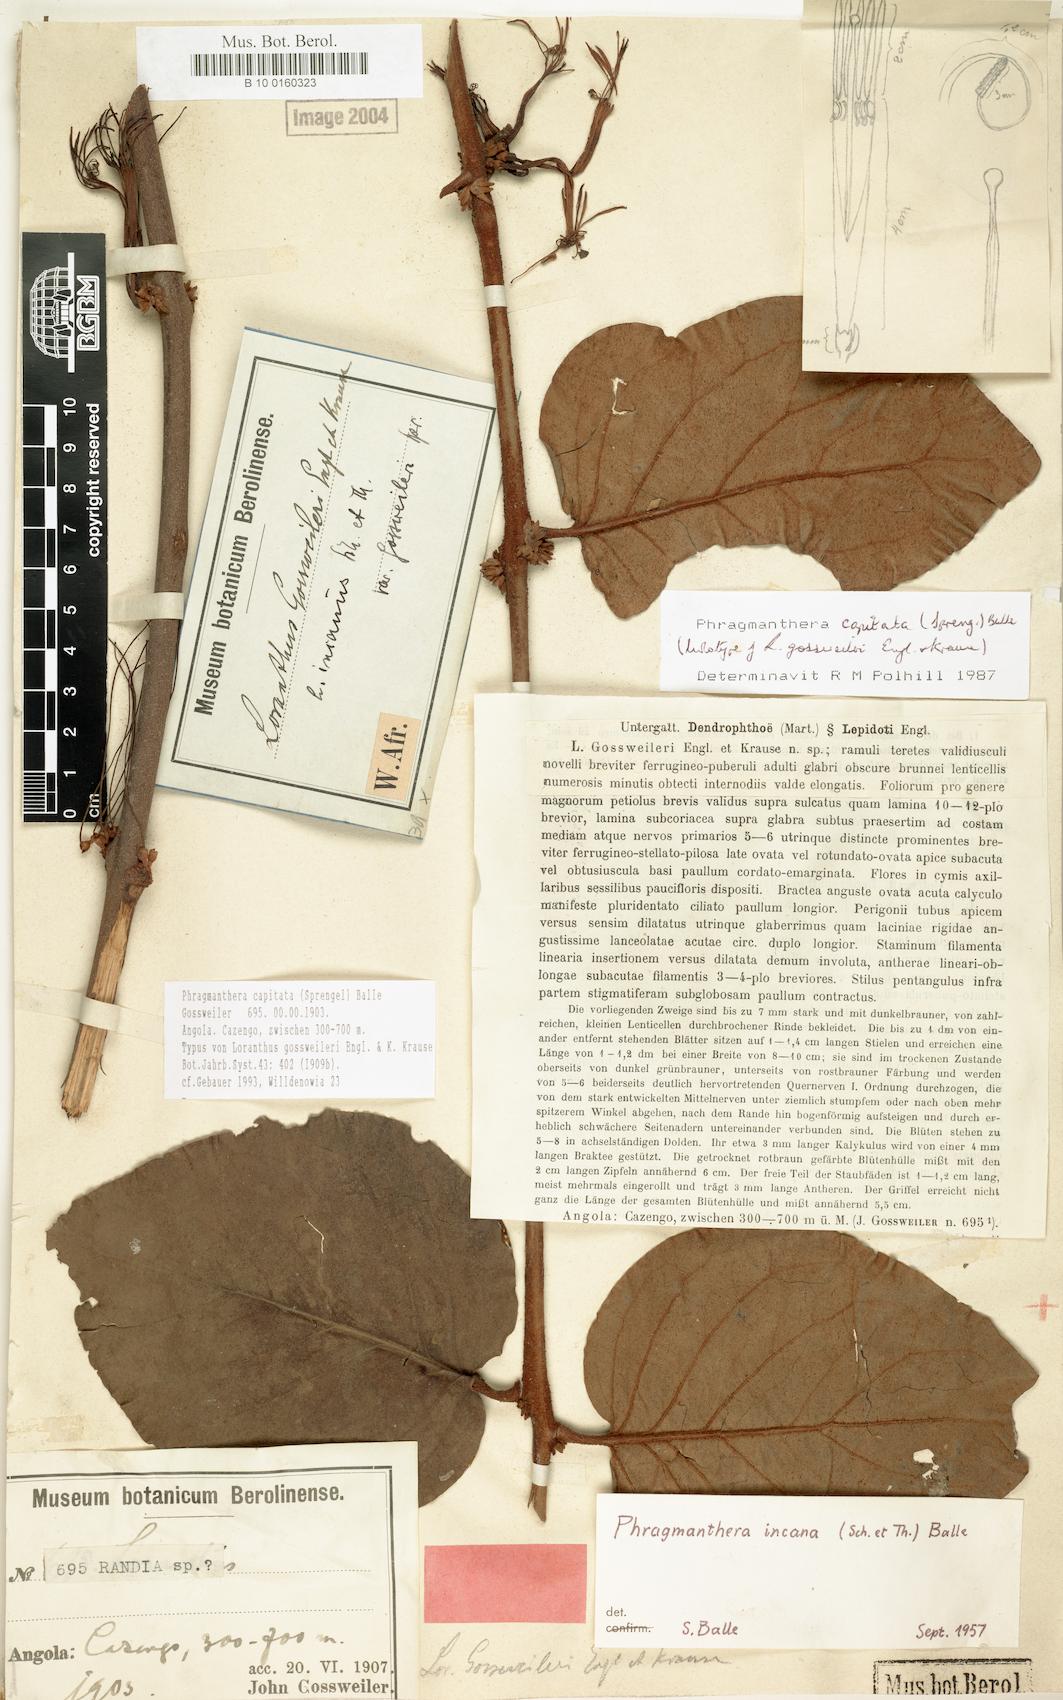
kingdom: Plantae
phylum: Tracheophyta
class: Magnoliopsida
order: Santalales
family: Loranthaceae
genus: Phragmanthera
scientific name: Phragmanthera capitata
